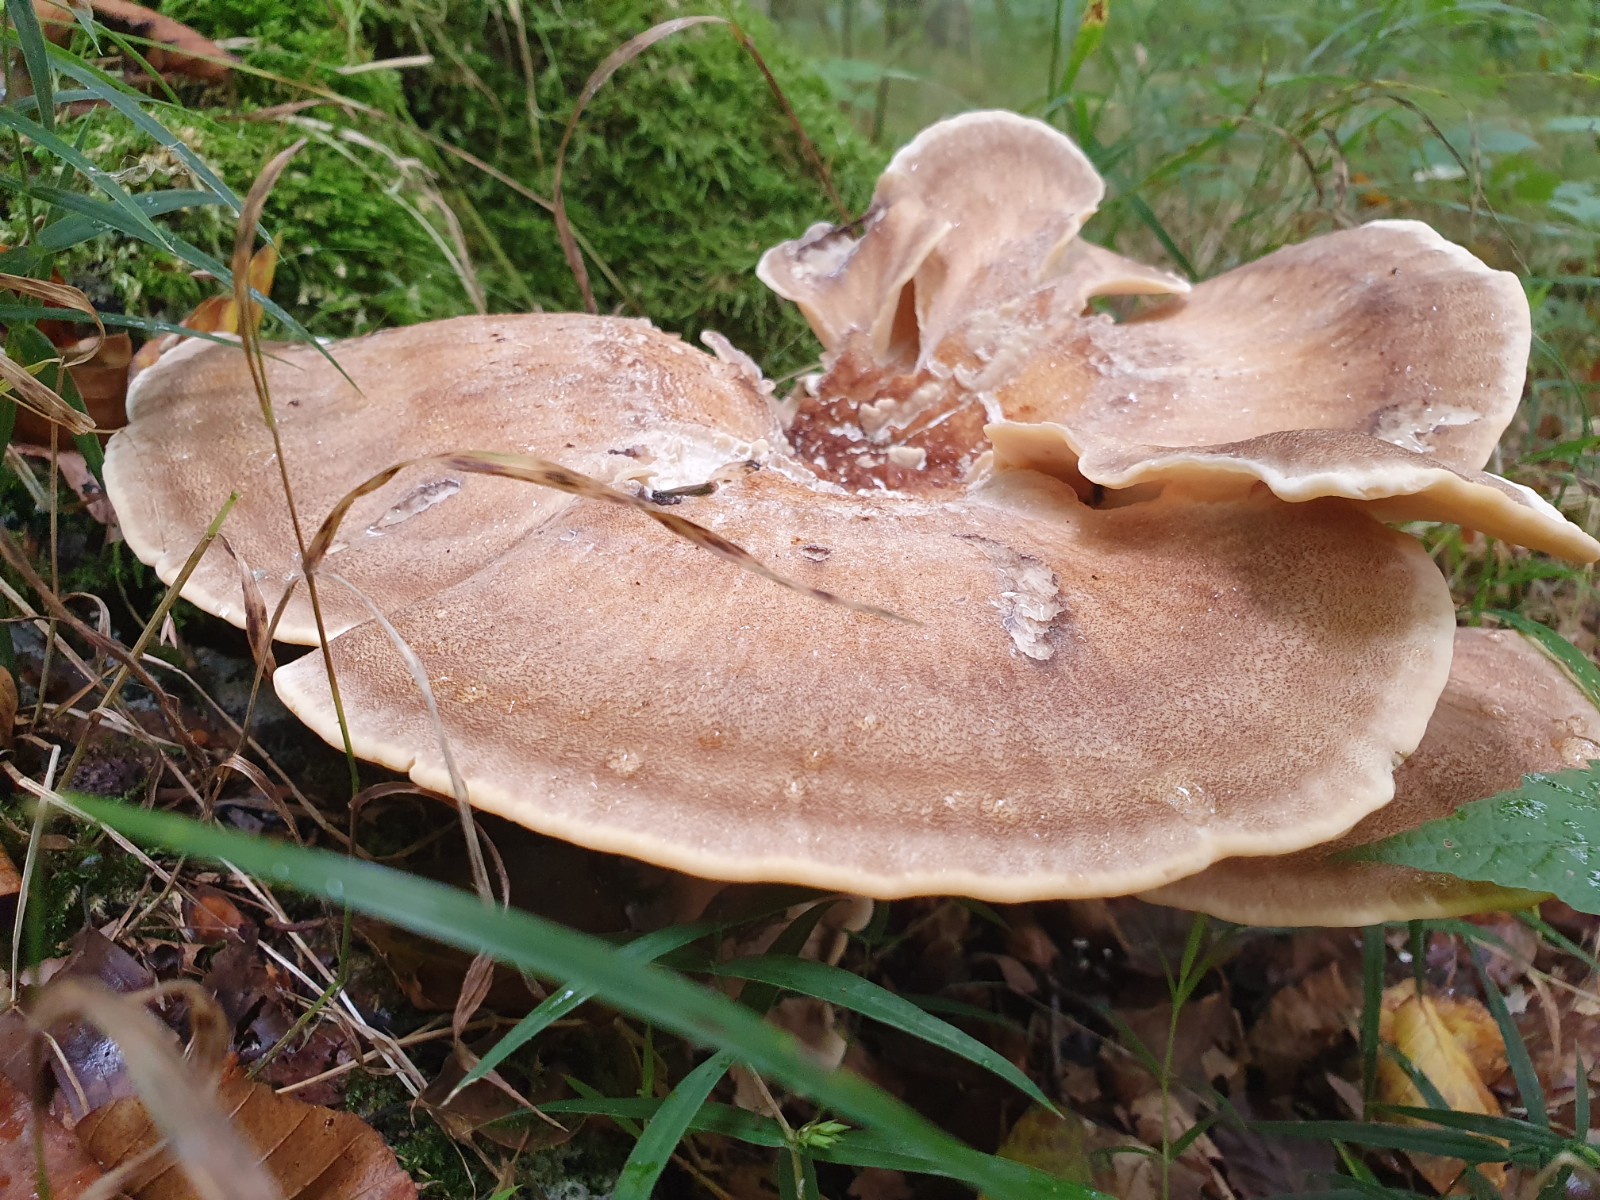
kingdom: Fungi
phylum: Basidiomycota
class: Agaricomycetes
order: Polyporales
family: Meripilaceae
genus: Meripilus
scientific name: Meripilus giganteus
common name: kæmpeporesvamp
